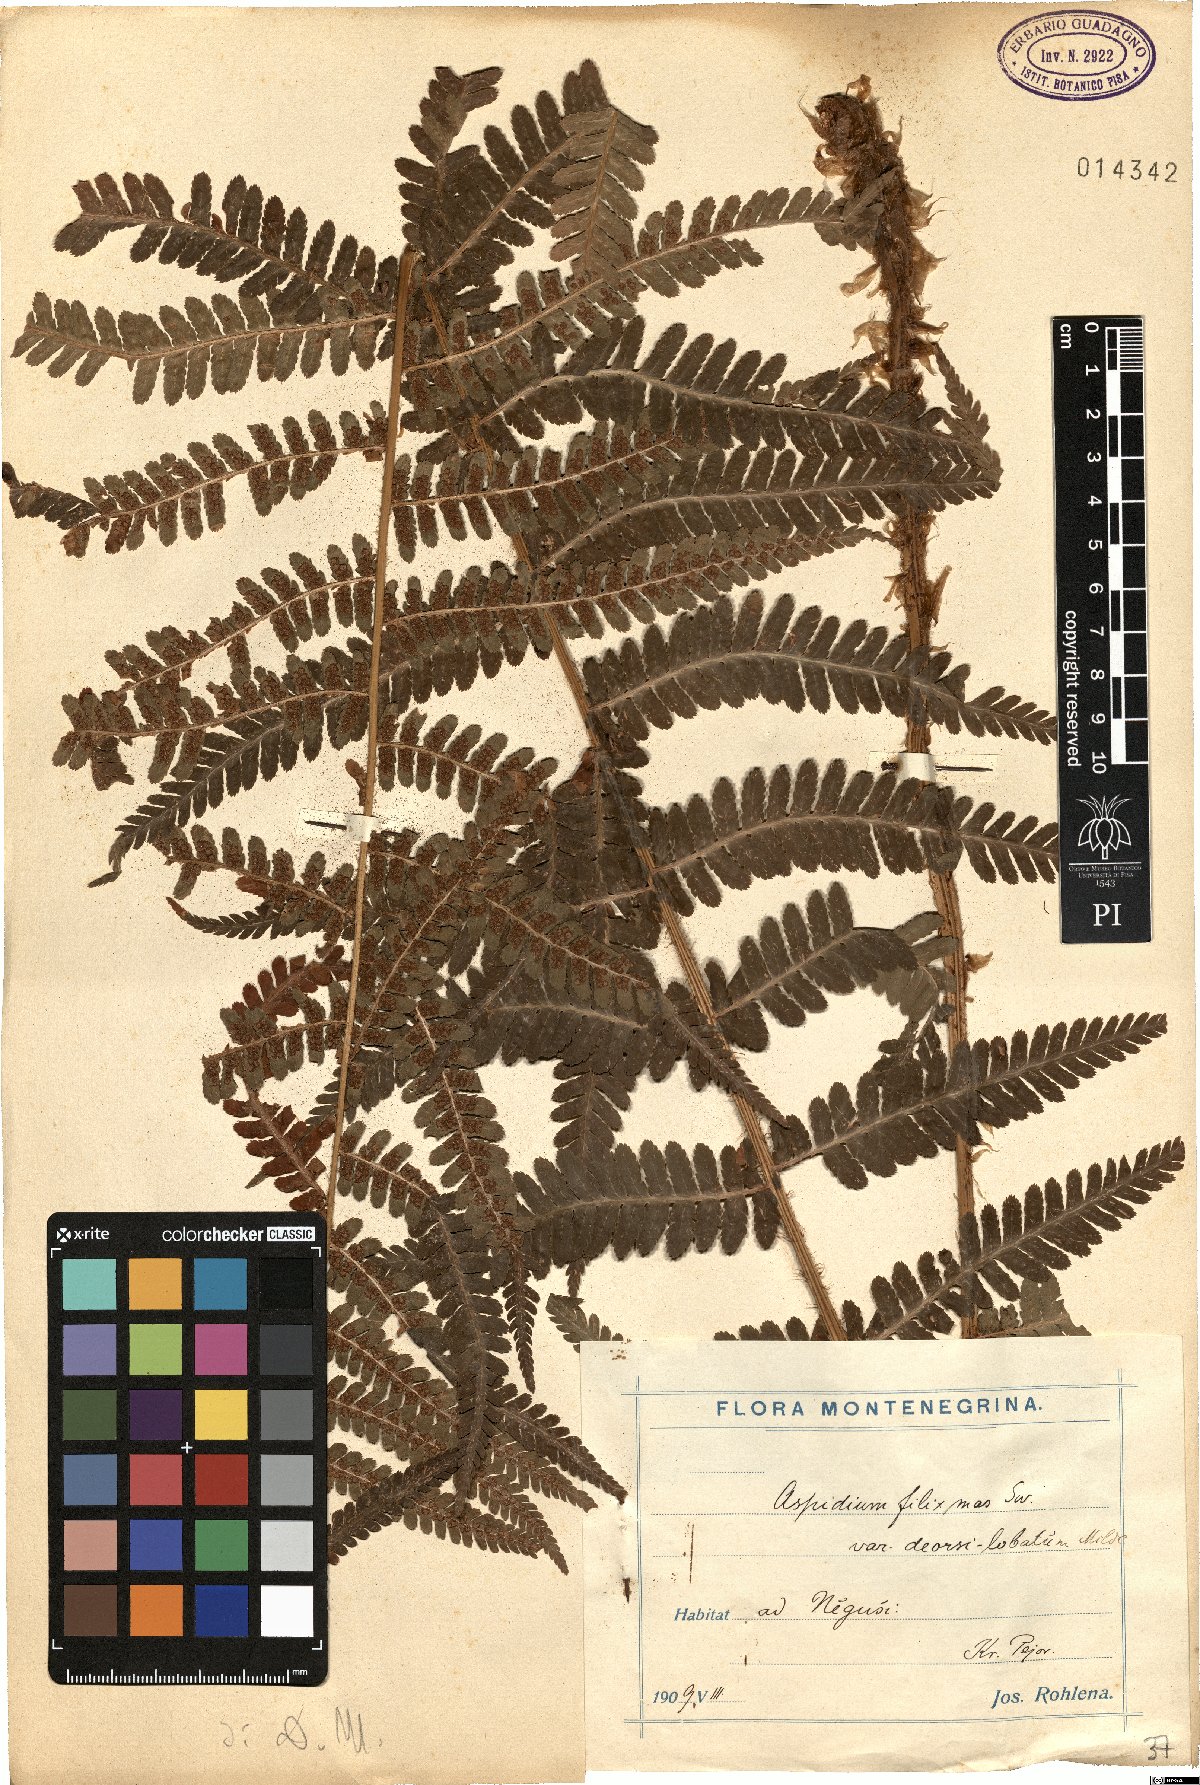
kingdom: Plantae
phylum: Tracheophyta
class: Polypodiopsida
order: Polypodiales
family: Dryopteridaceae
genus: Dryopteris
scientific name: Dryopteris filix-mas
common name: Male fern
